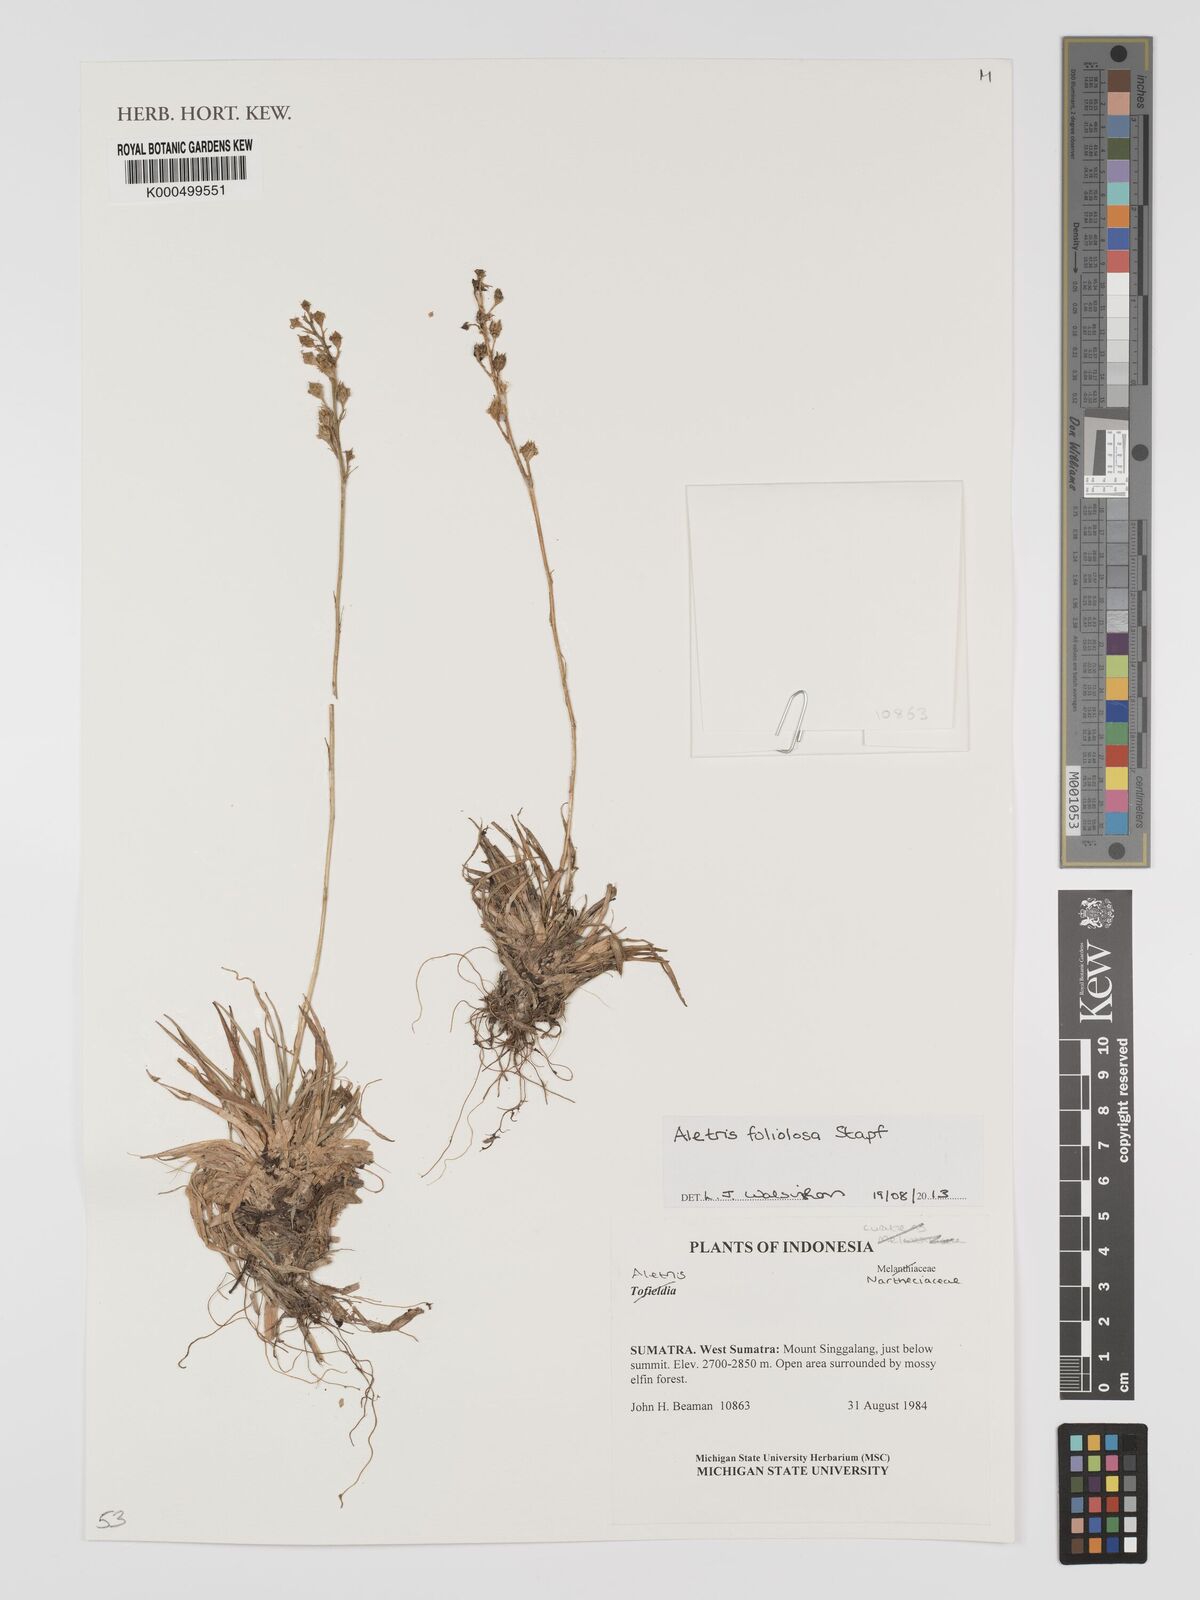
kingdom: Plantae
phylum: Tracheophyta
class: Liliopsida
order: Dioscoreales
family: Nartheciaceae
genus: Aletris
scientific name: Aletris foliolosa
